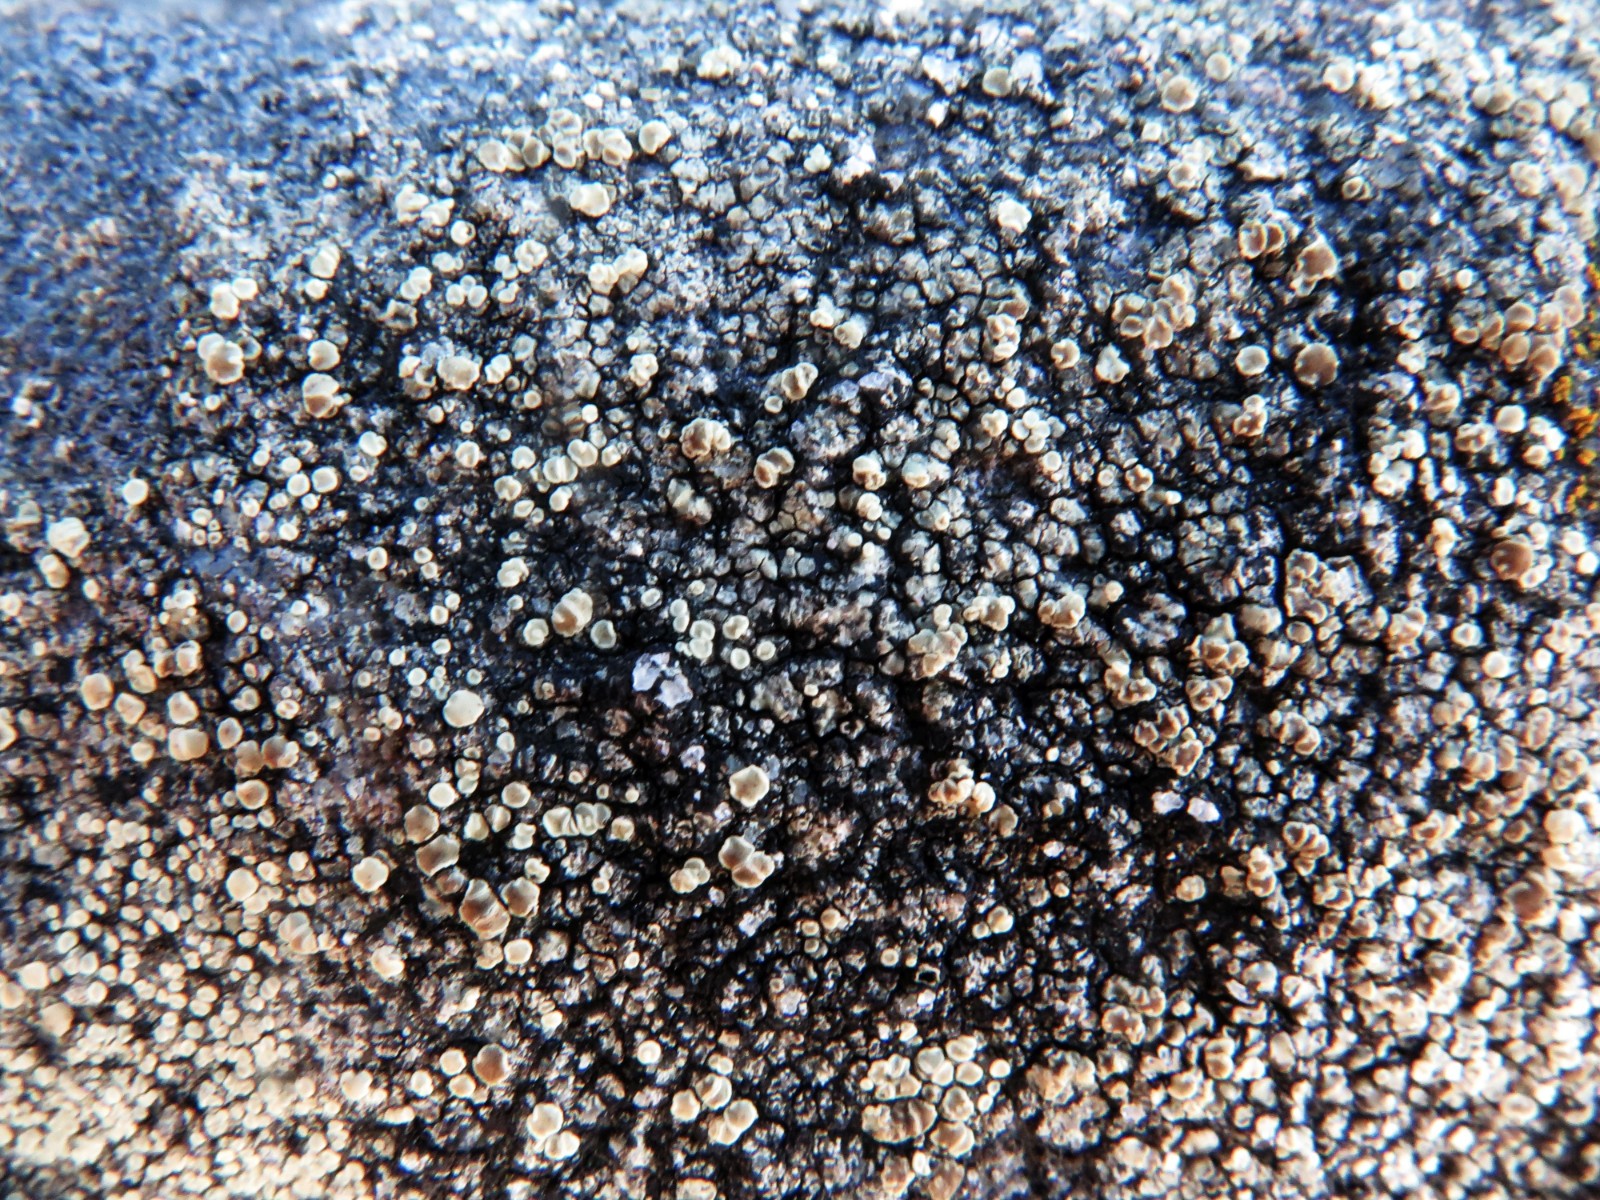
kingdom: Fungi
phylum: Ascomycota
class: Lecanoromycetes
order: Lecanorales
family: Lecanoraceae
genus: Lecanora
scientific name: Lecanora polytropa
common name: bleggrøn kantskivelav
